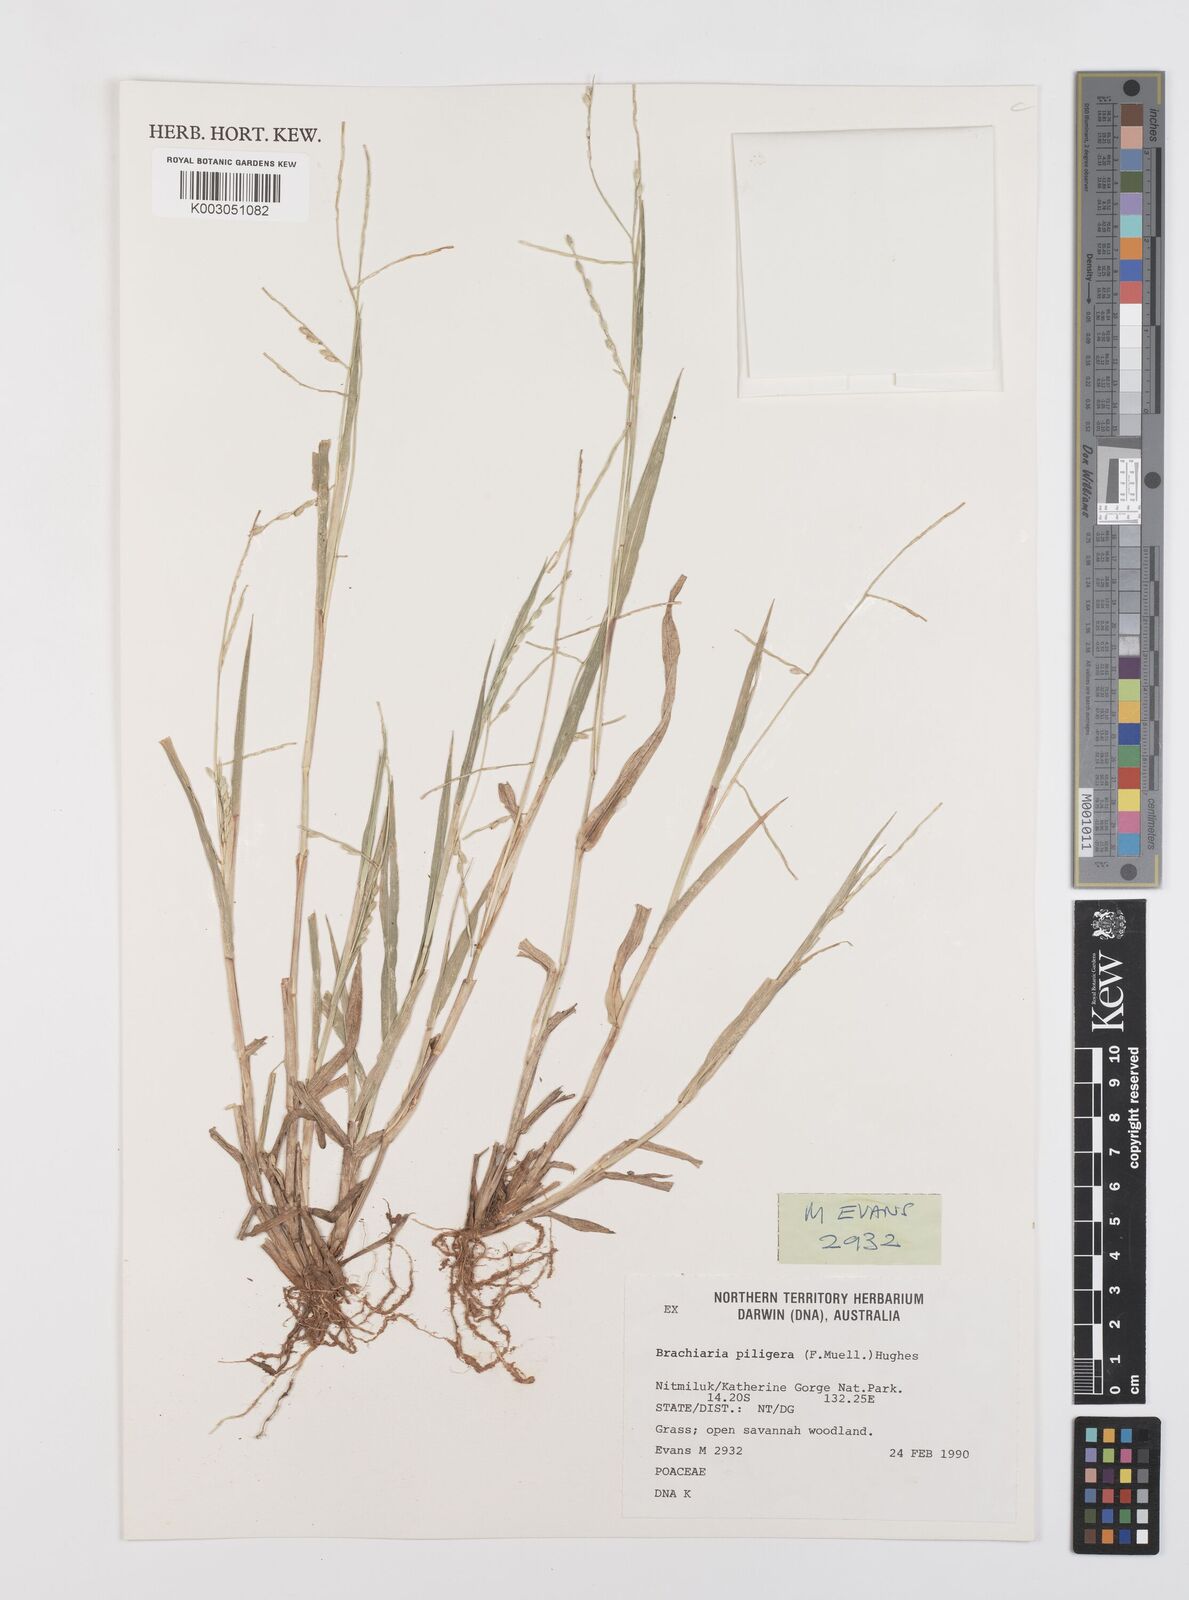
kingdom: Plantae
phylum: Tracheophyta
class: Liliopsida
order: Poales
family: Poaceae
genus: Urochloa
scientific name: Urochloa piligera
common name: Wattle signalgrass
